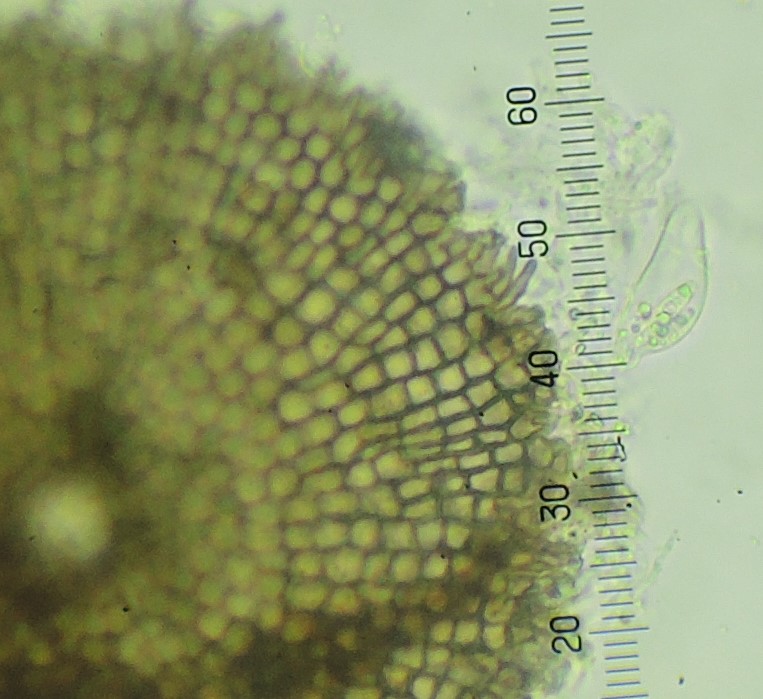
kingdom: Fungi
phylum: Ascomycota
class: Dothideomycetes
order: Microthyriales
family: Microthyriaceae
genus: Microthyrium
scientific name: Microthyrium ciliatum
